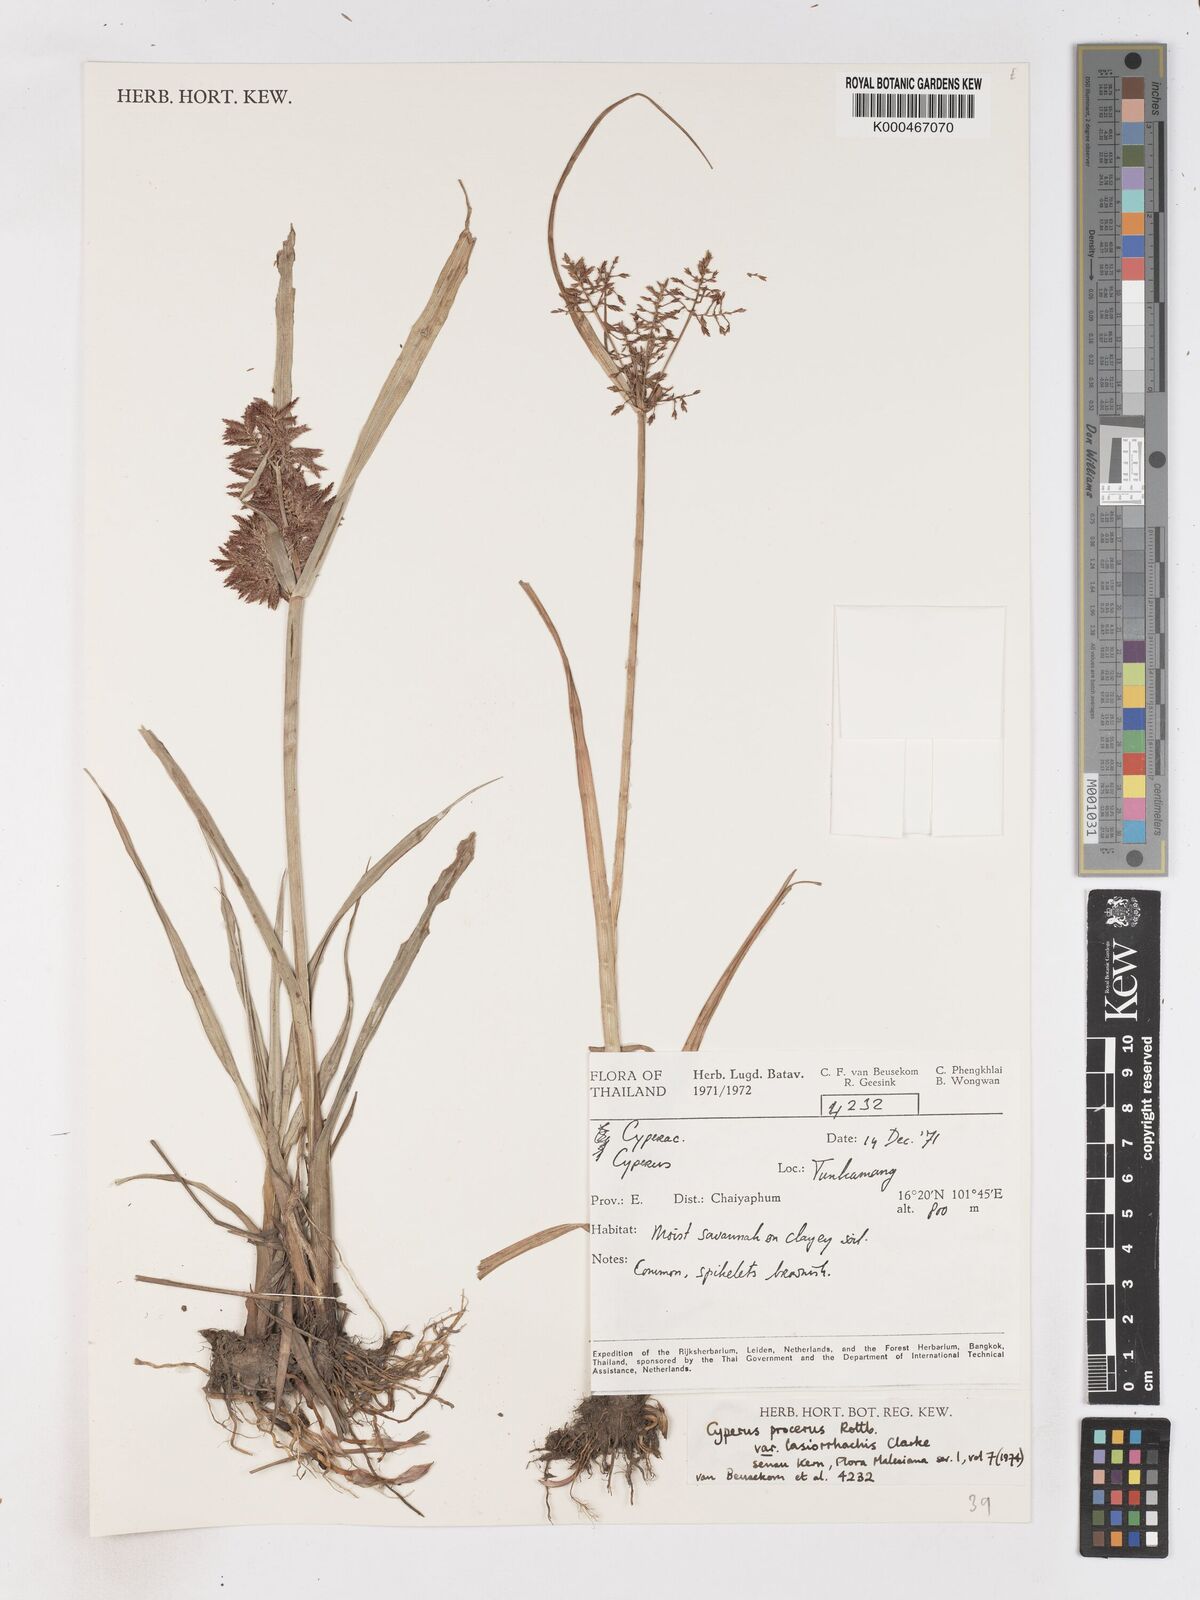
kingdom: Plantae
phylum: Tracheophyta
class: Liliopsida
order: Poales
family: Cyperaceae
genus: Cyperus
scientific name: Cyperus procerus
